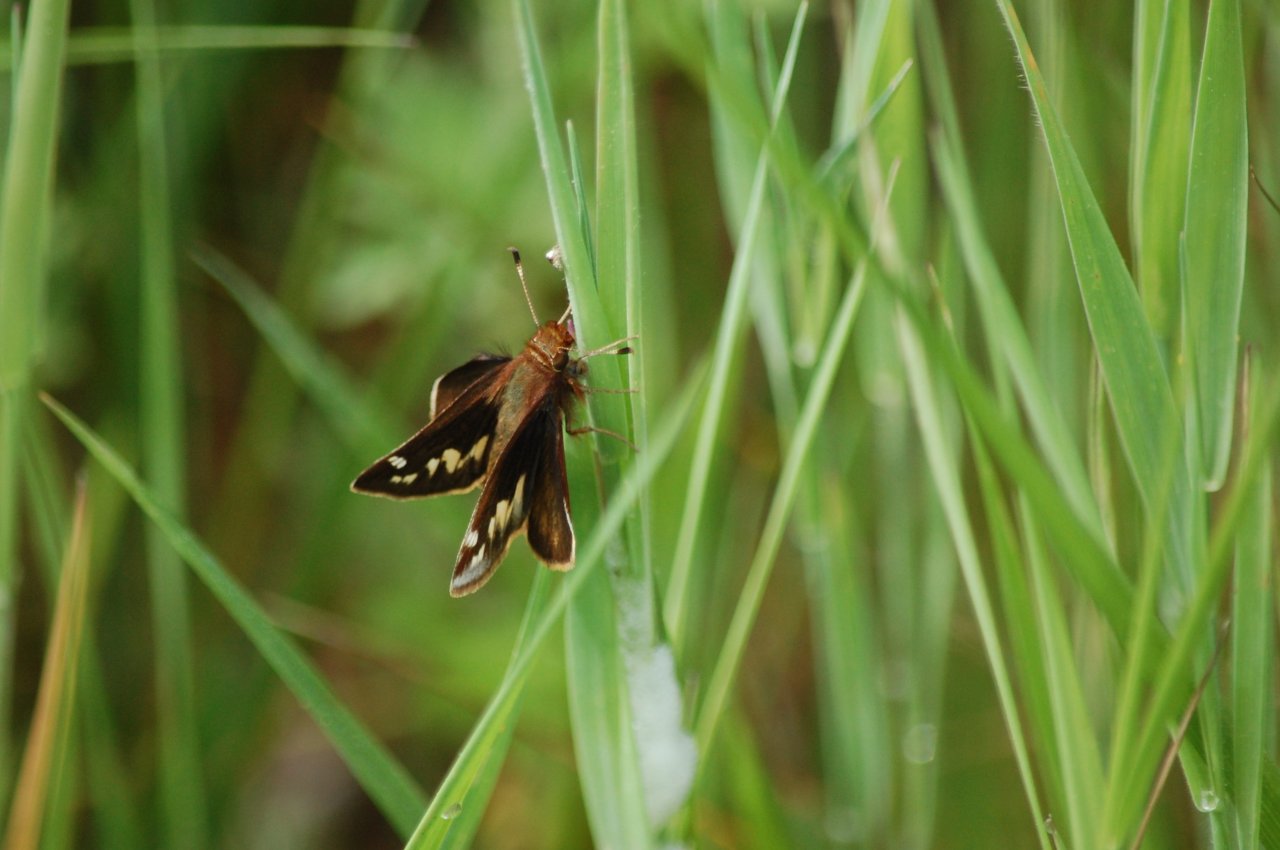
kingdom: Animalia
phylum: Arthropoda
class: Insecta
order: Lepidoptera
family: Hesperiidae
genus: Lon
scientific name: Lon hobomok
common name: Hobomok Skipper
